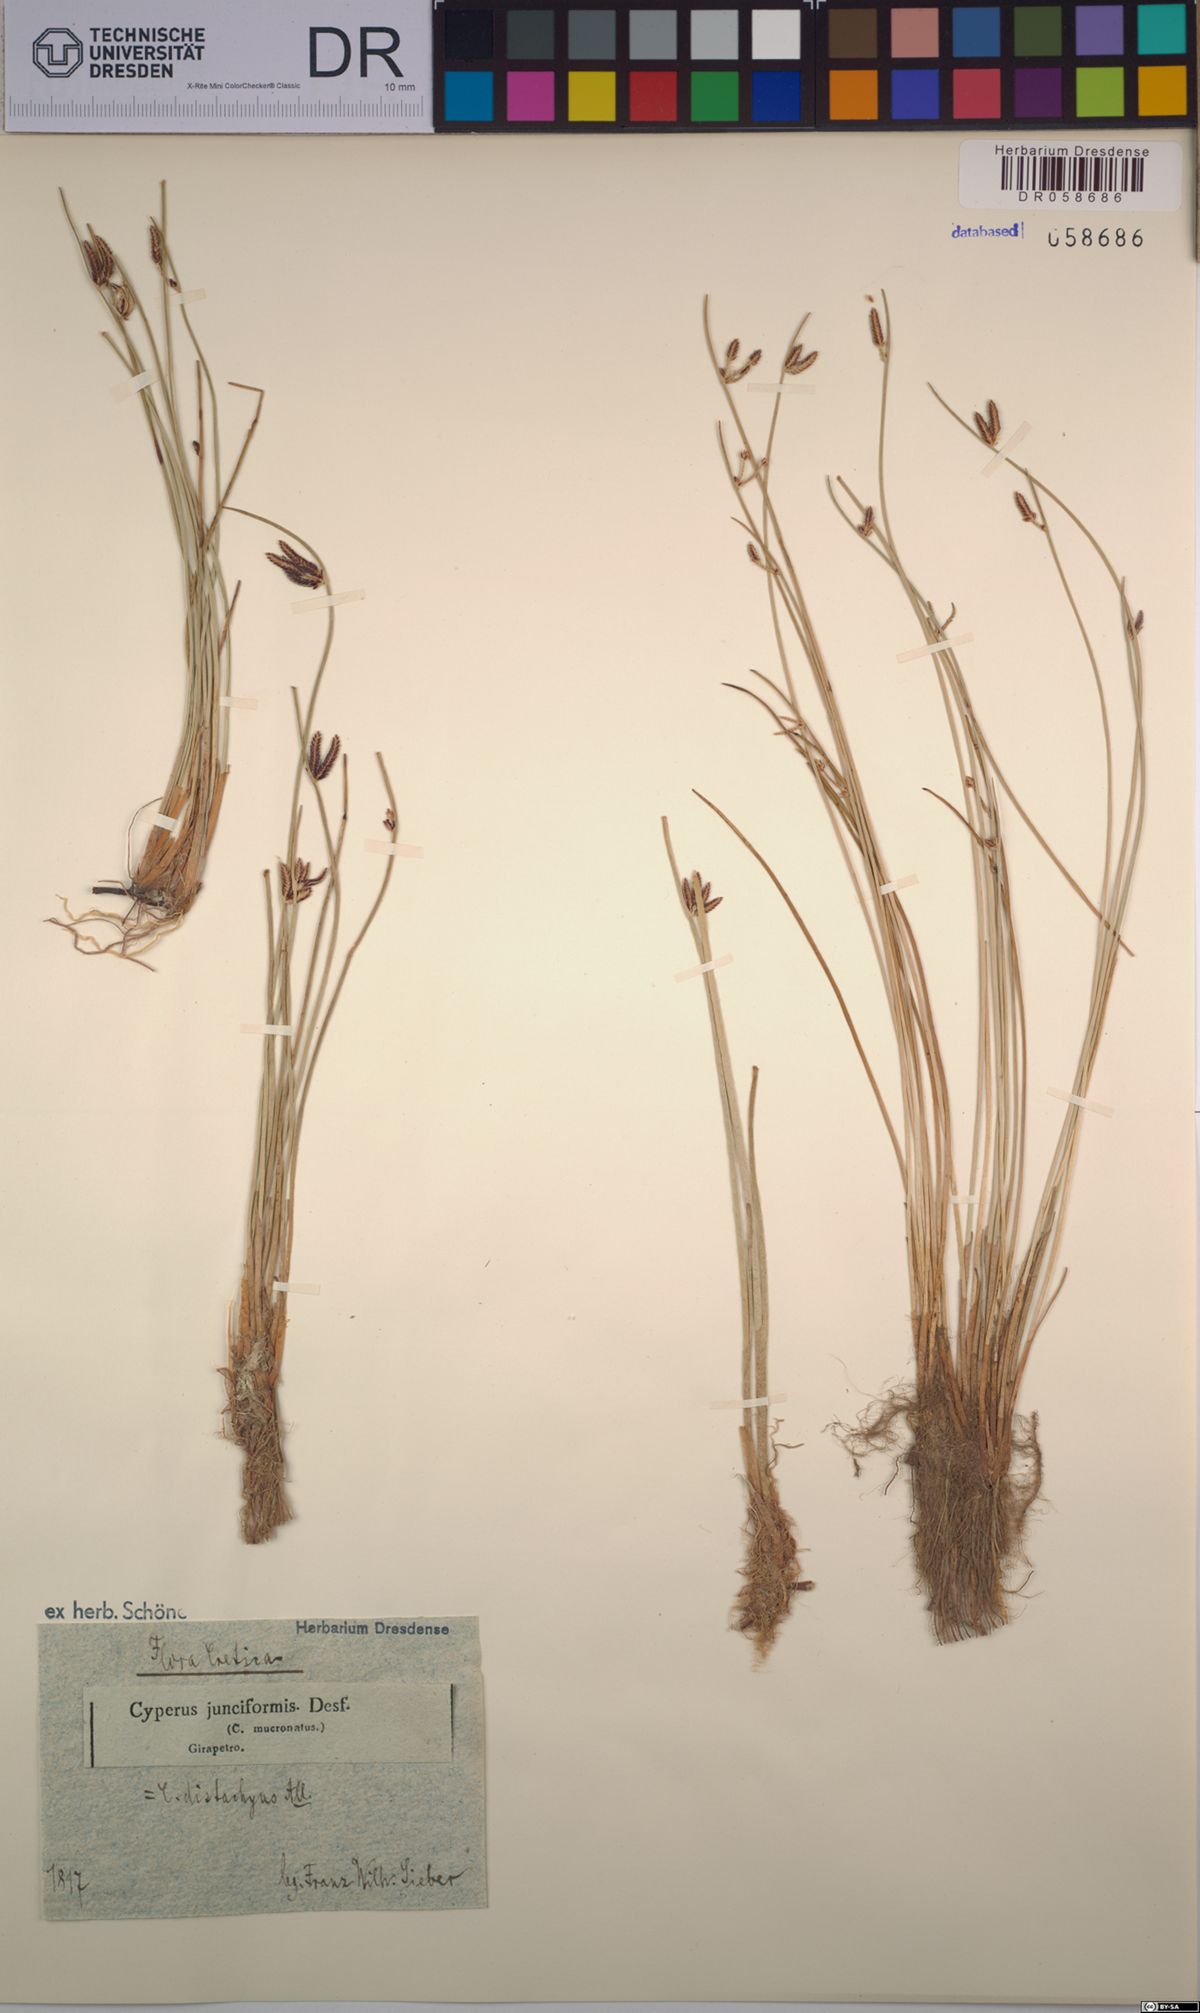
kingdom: Plantae
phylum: Tracheophyta
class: Liliopsida
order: Poales
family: Cyperaceae
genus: Cyperus
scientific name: Cyperus laevigatus
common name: Smooth flat sedge
